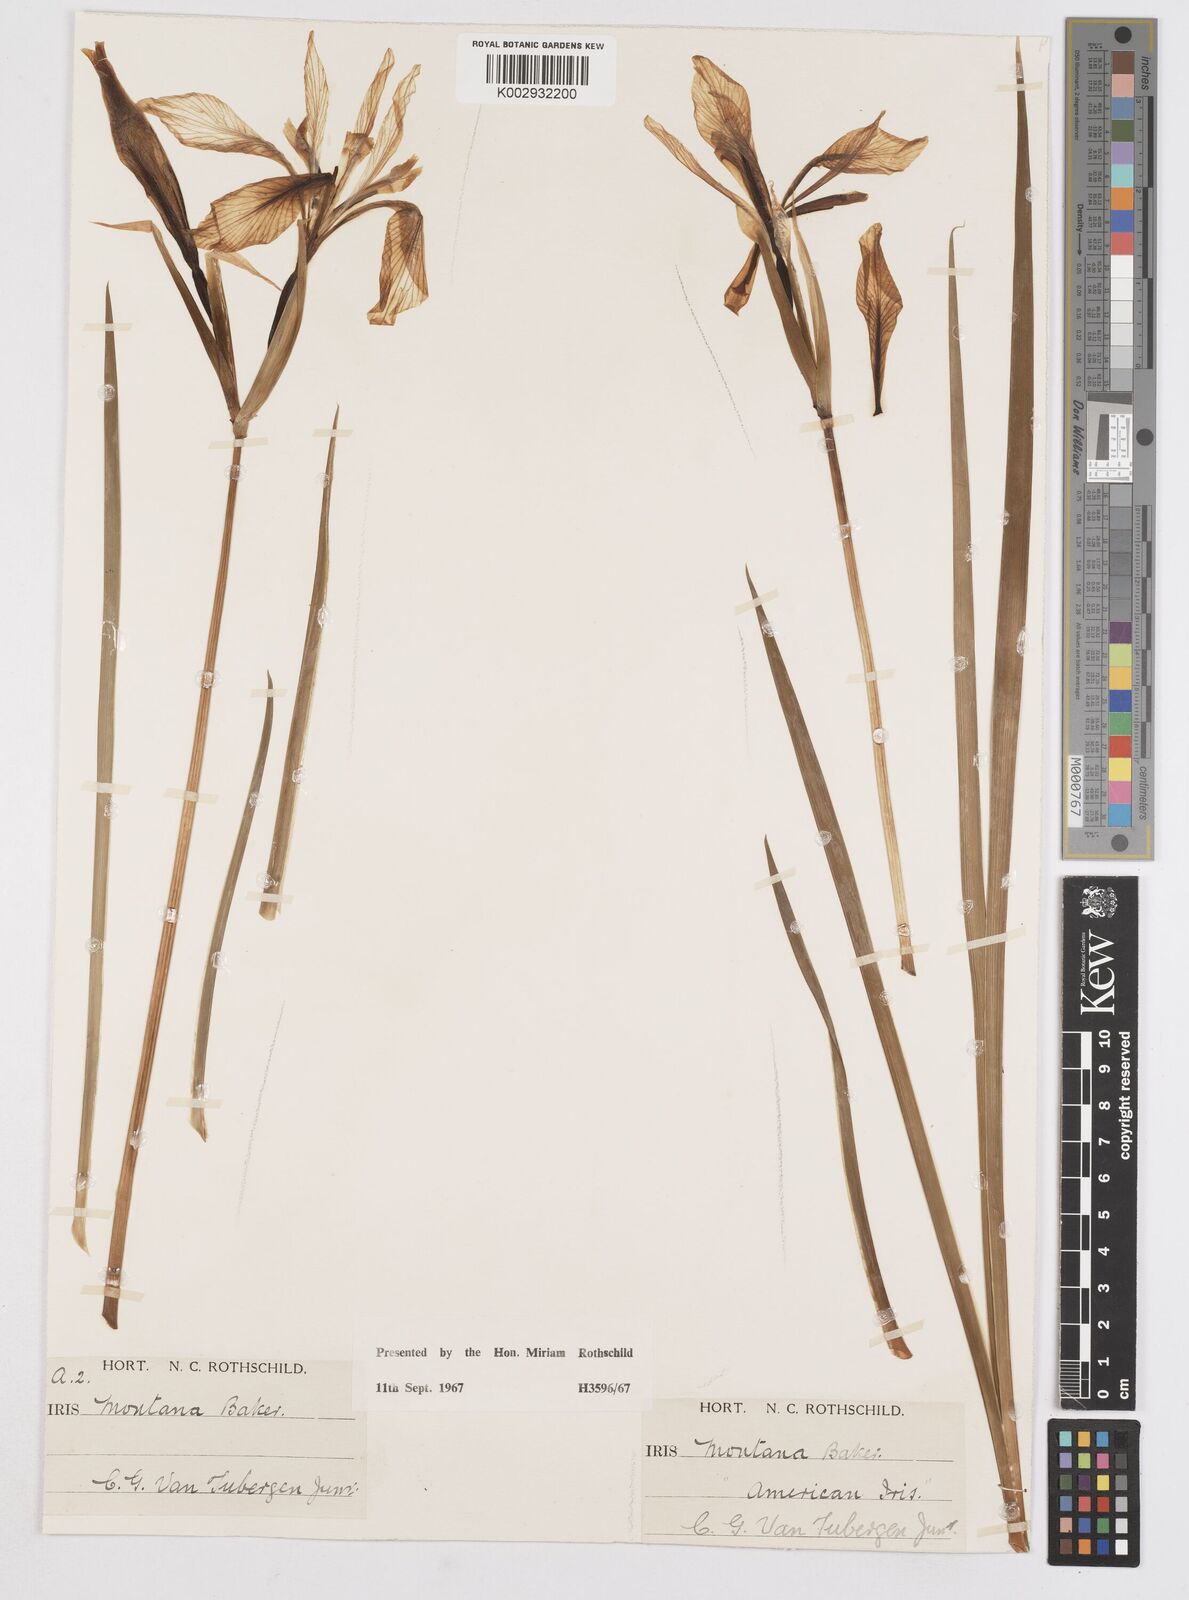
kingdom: Plantae
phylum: Tracheophyta
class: Liliopsida
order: Asparagales
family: Iridaceae
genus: Iris
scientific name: Iris missouriensis
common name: Rocky mountain iris
